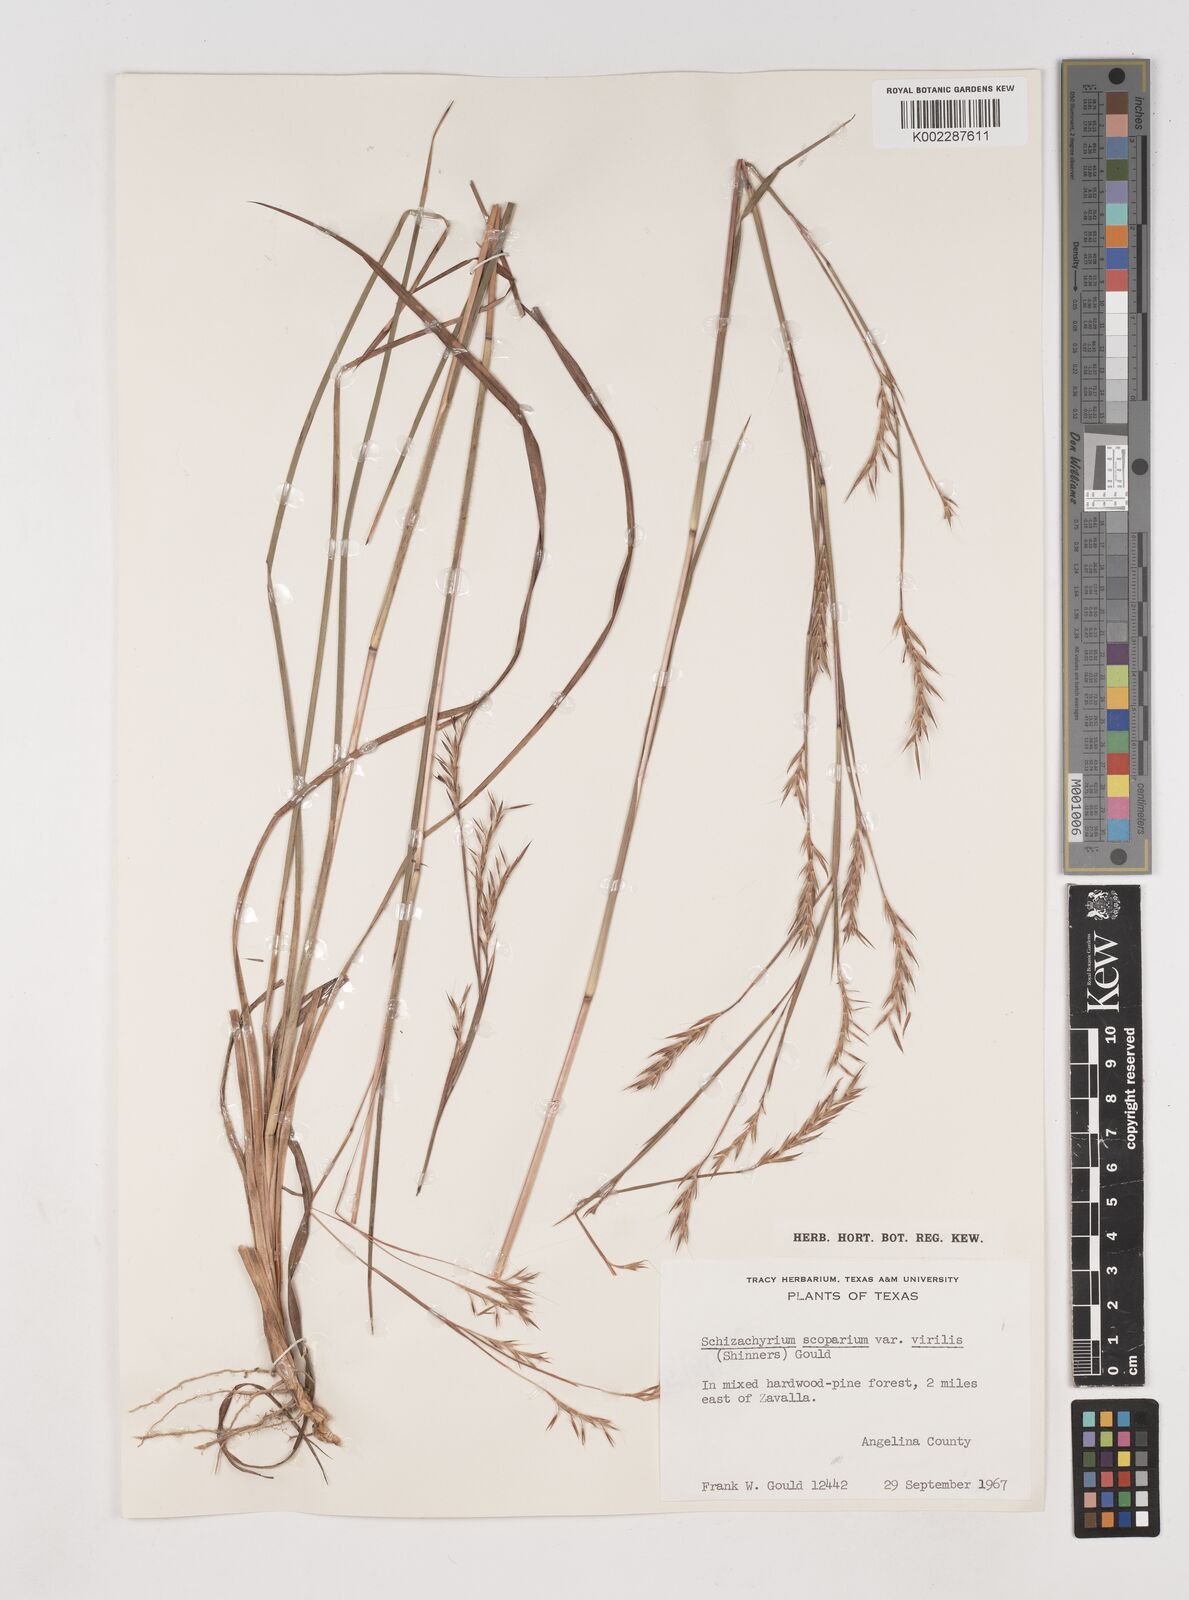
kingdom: Plantae
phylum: Tracheophyta
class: Liliopsida
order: Poales
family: Poaceae
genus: Schizachyrium
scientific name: Schizachyrium scoparium
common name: Little bluestem
